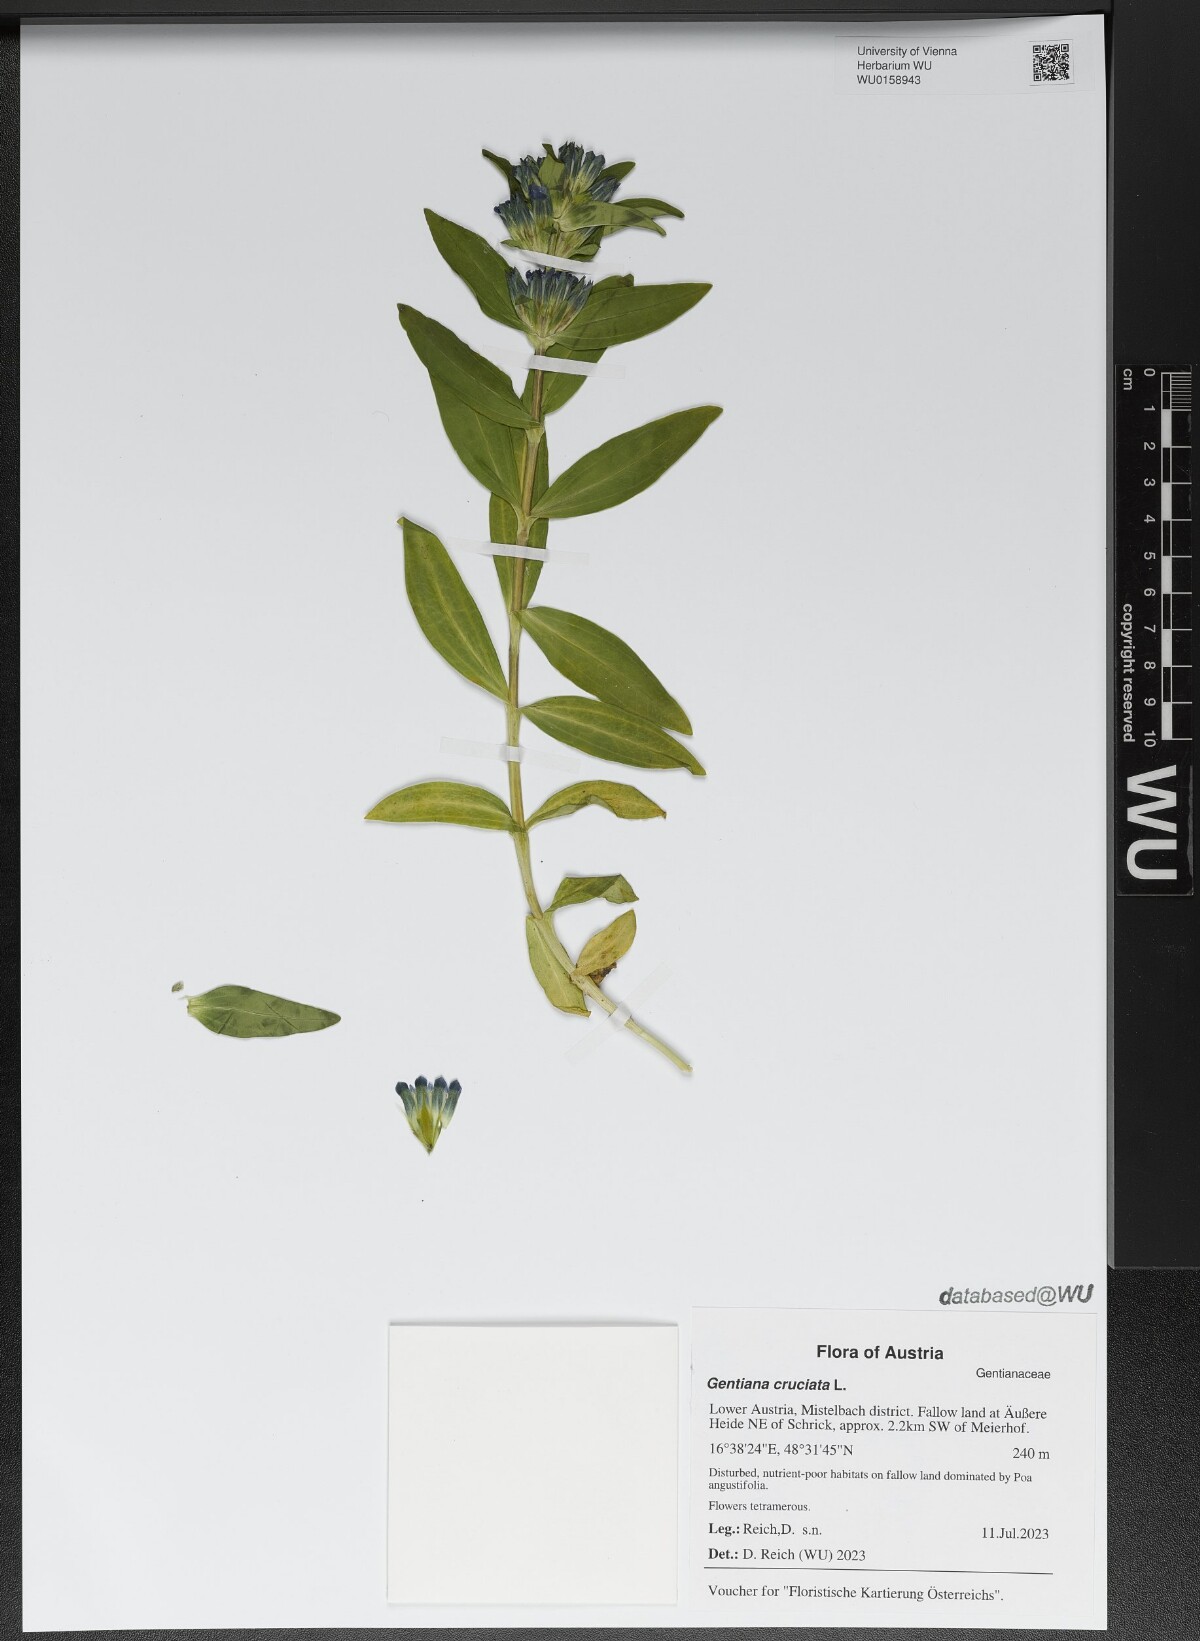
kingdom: Plantae
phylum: Tracheophyta
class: Magnoliopsida
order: Gentianales
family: Gentianaceae
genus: Gentiana
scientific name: Gentiana cruciata
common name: Cross gentian
